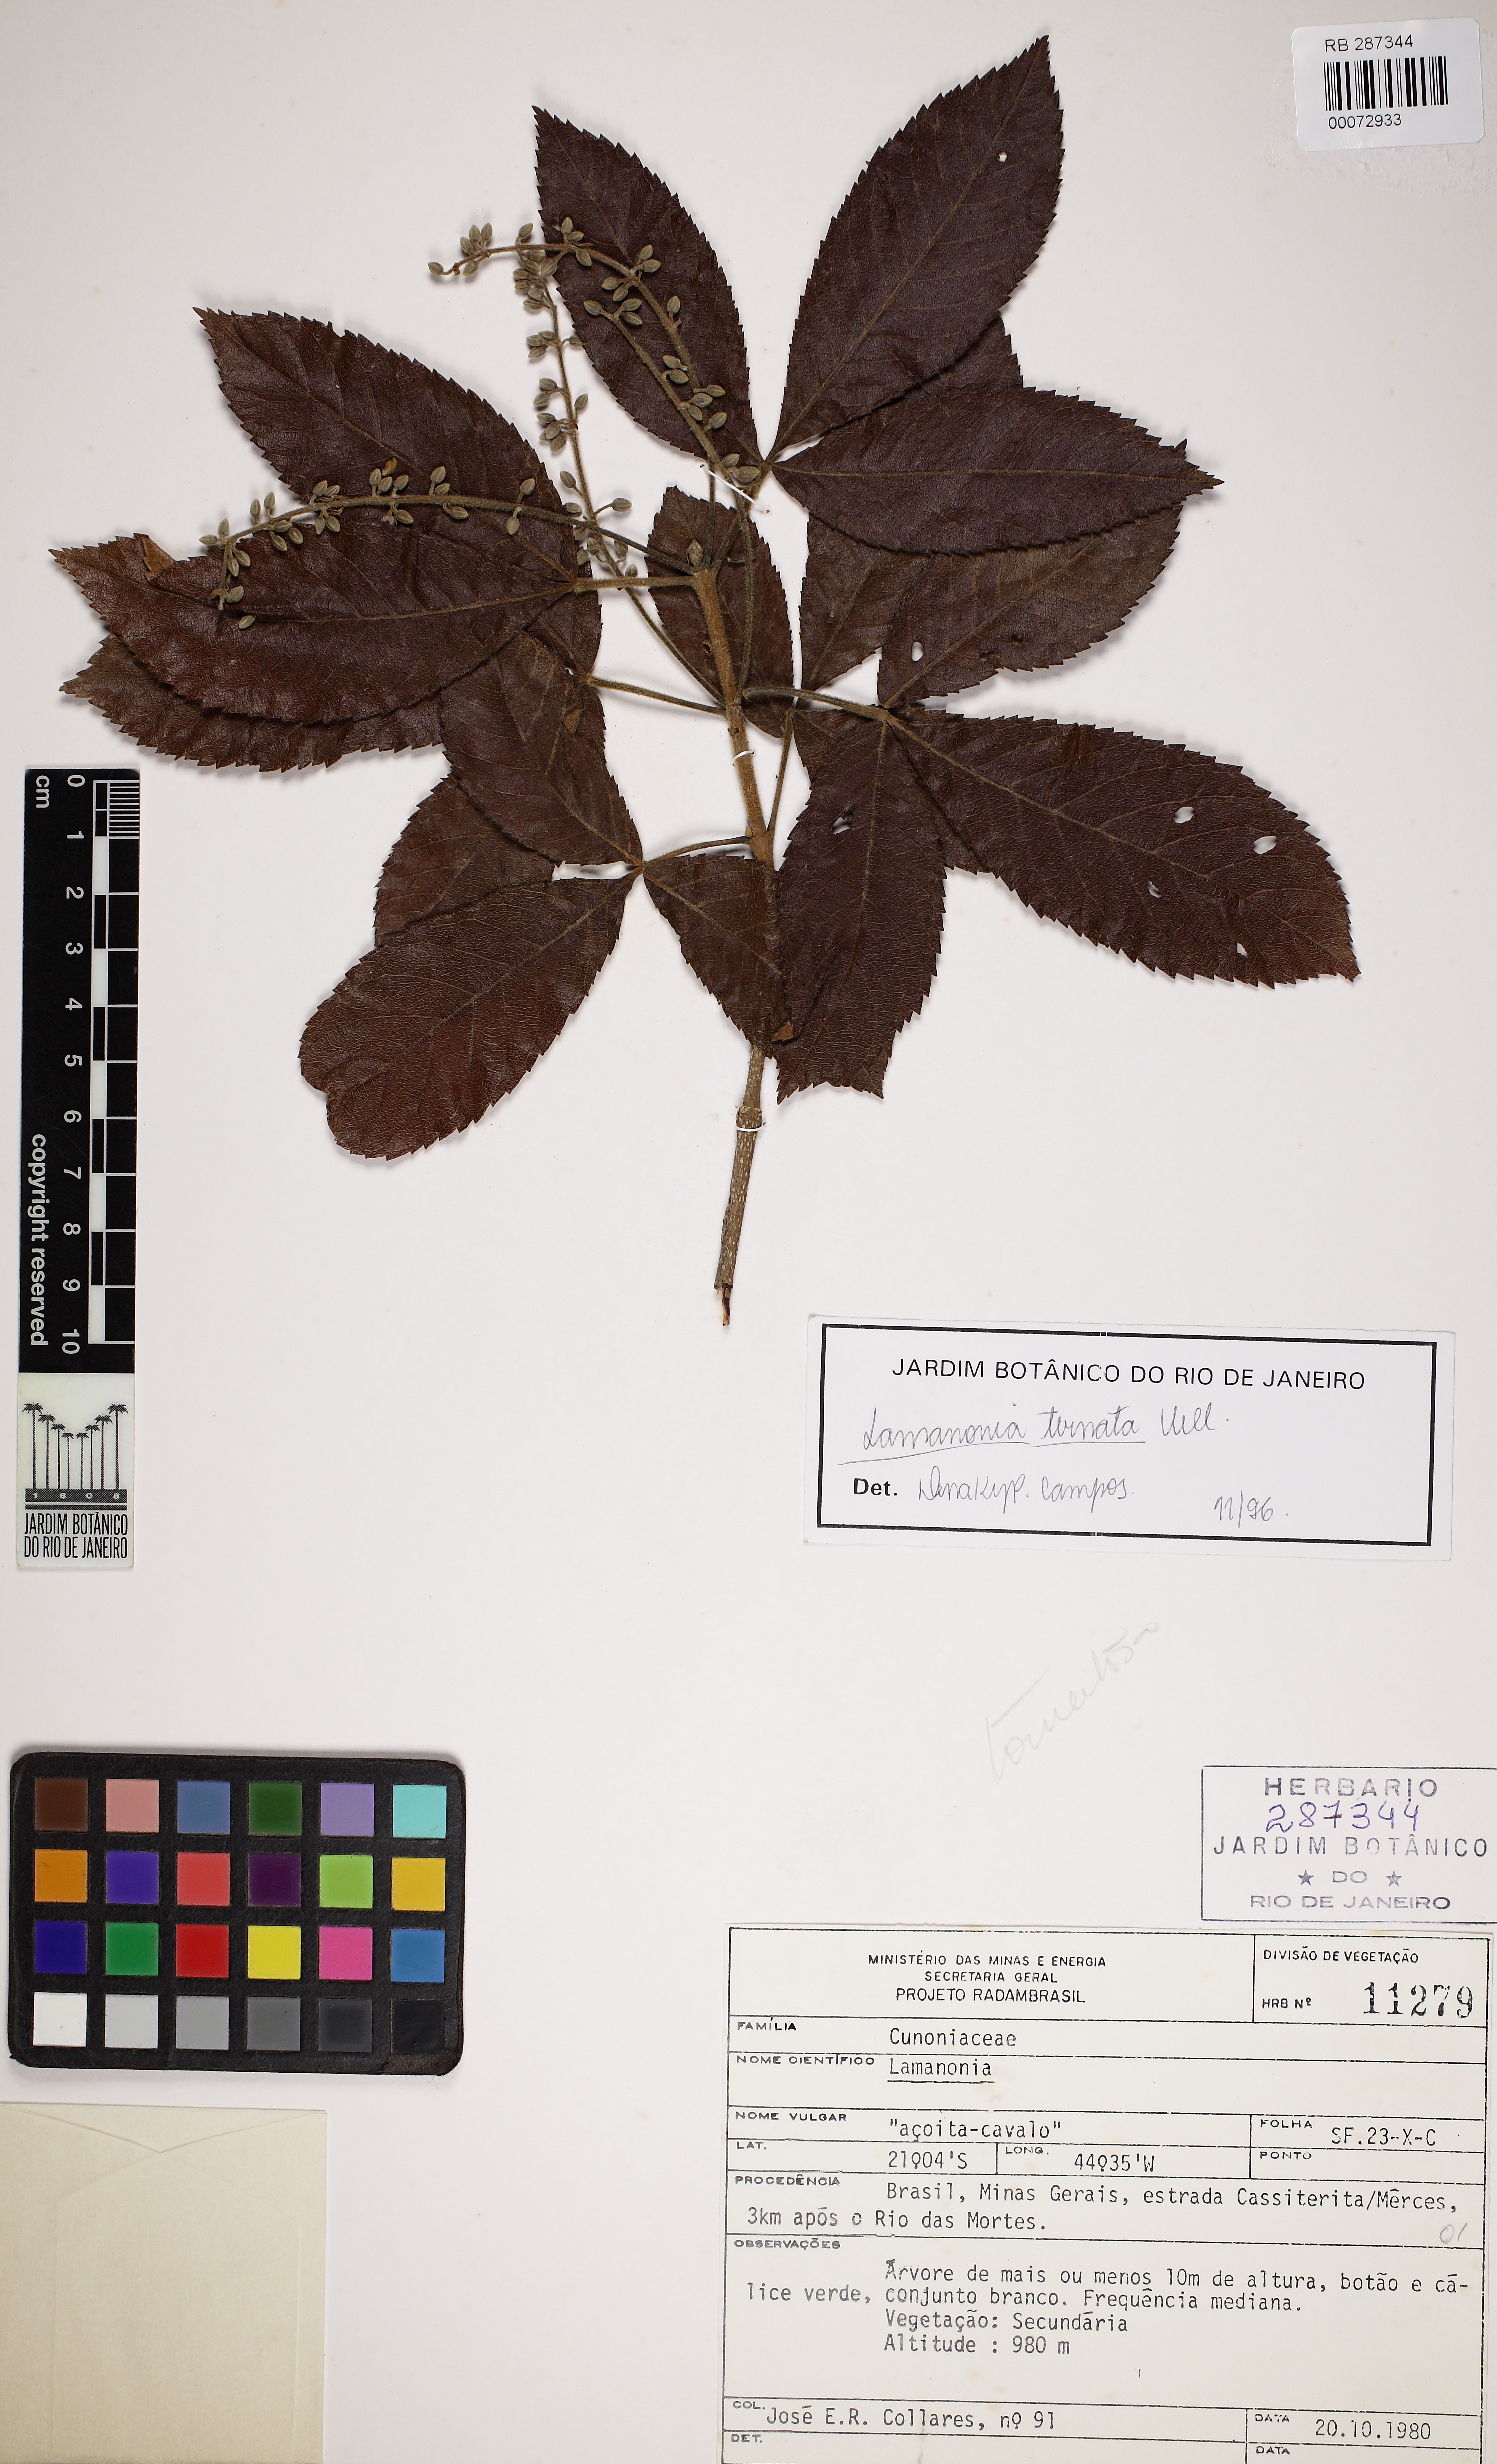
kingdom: Plantae
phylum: Tracheophyta
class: Magnoliopsida
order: Oxalidales
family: Cunoniaceae
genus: Lamanonia
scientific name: Lamanonia ternata
